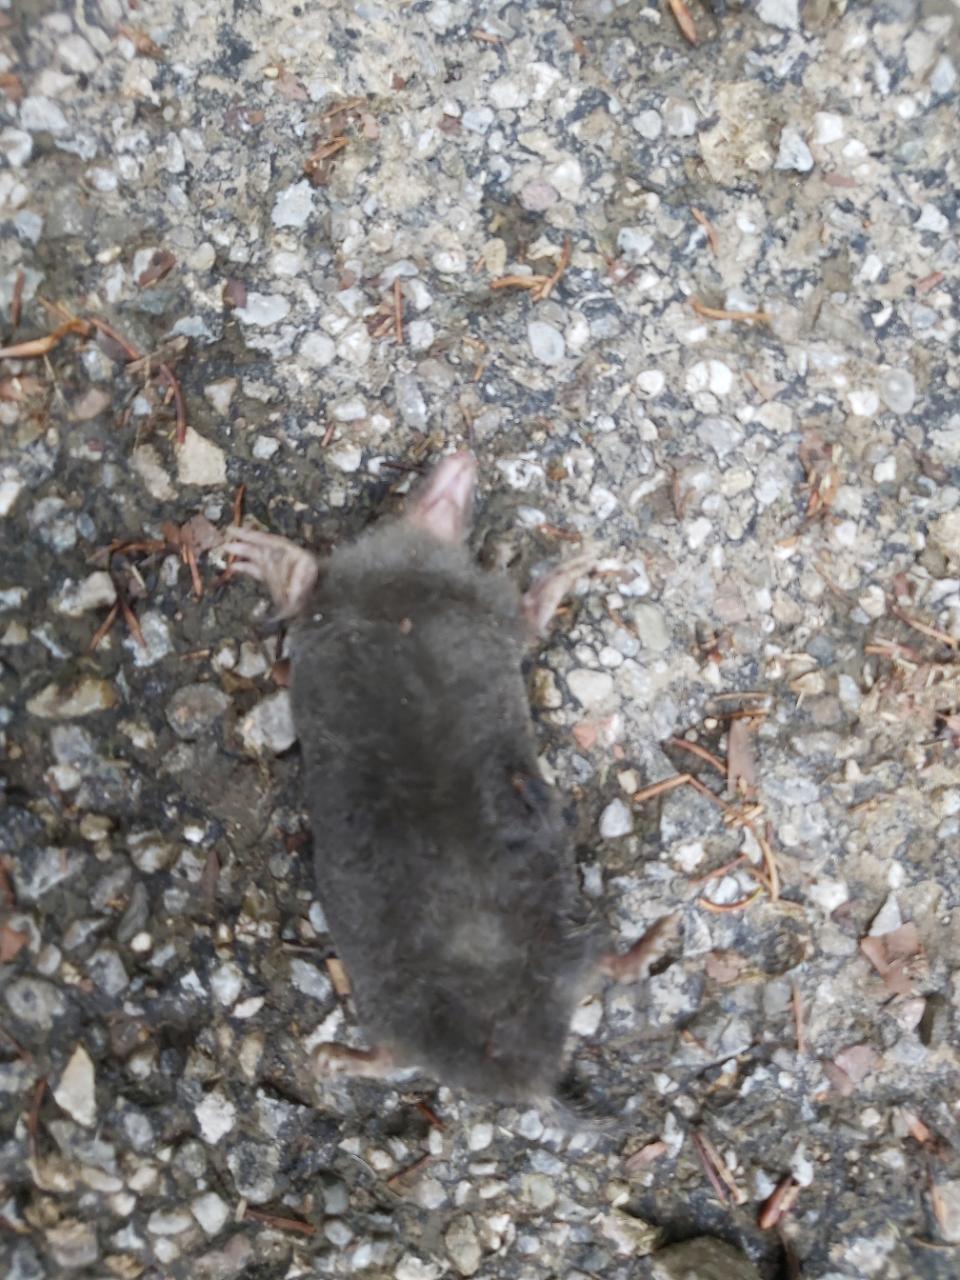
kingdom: Animalia
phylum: Chordata
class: Mammalia
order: Soricomorpha
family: Talpidae
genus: Talpa
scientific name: Talpa europaea
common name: European mole
